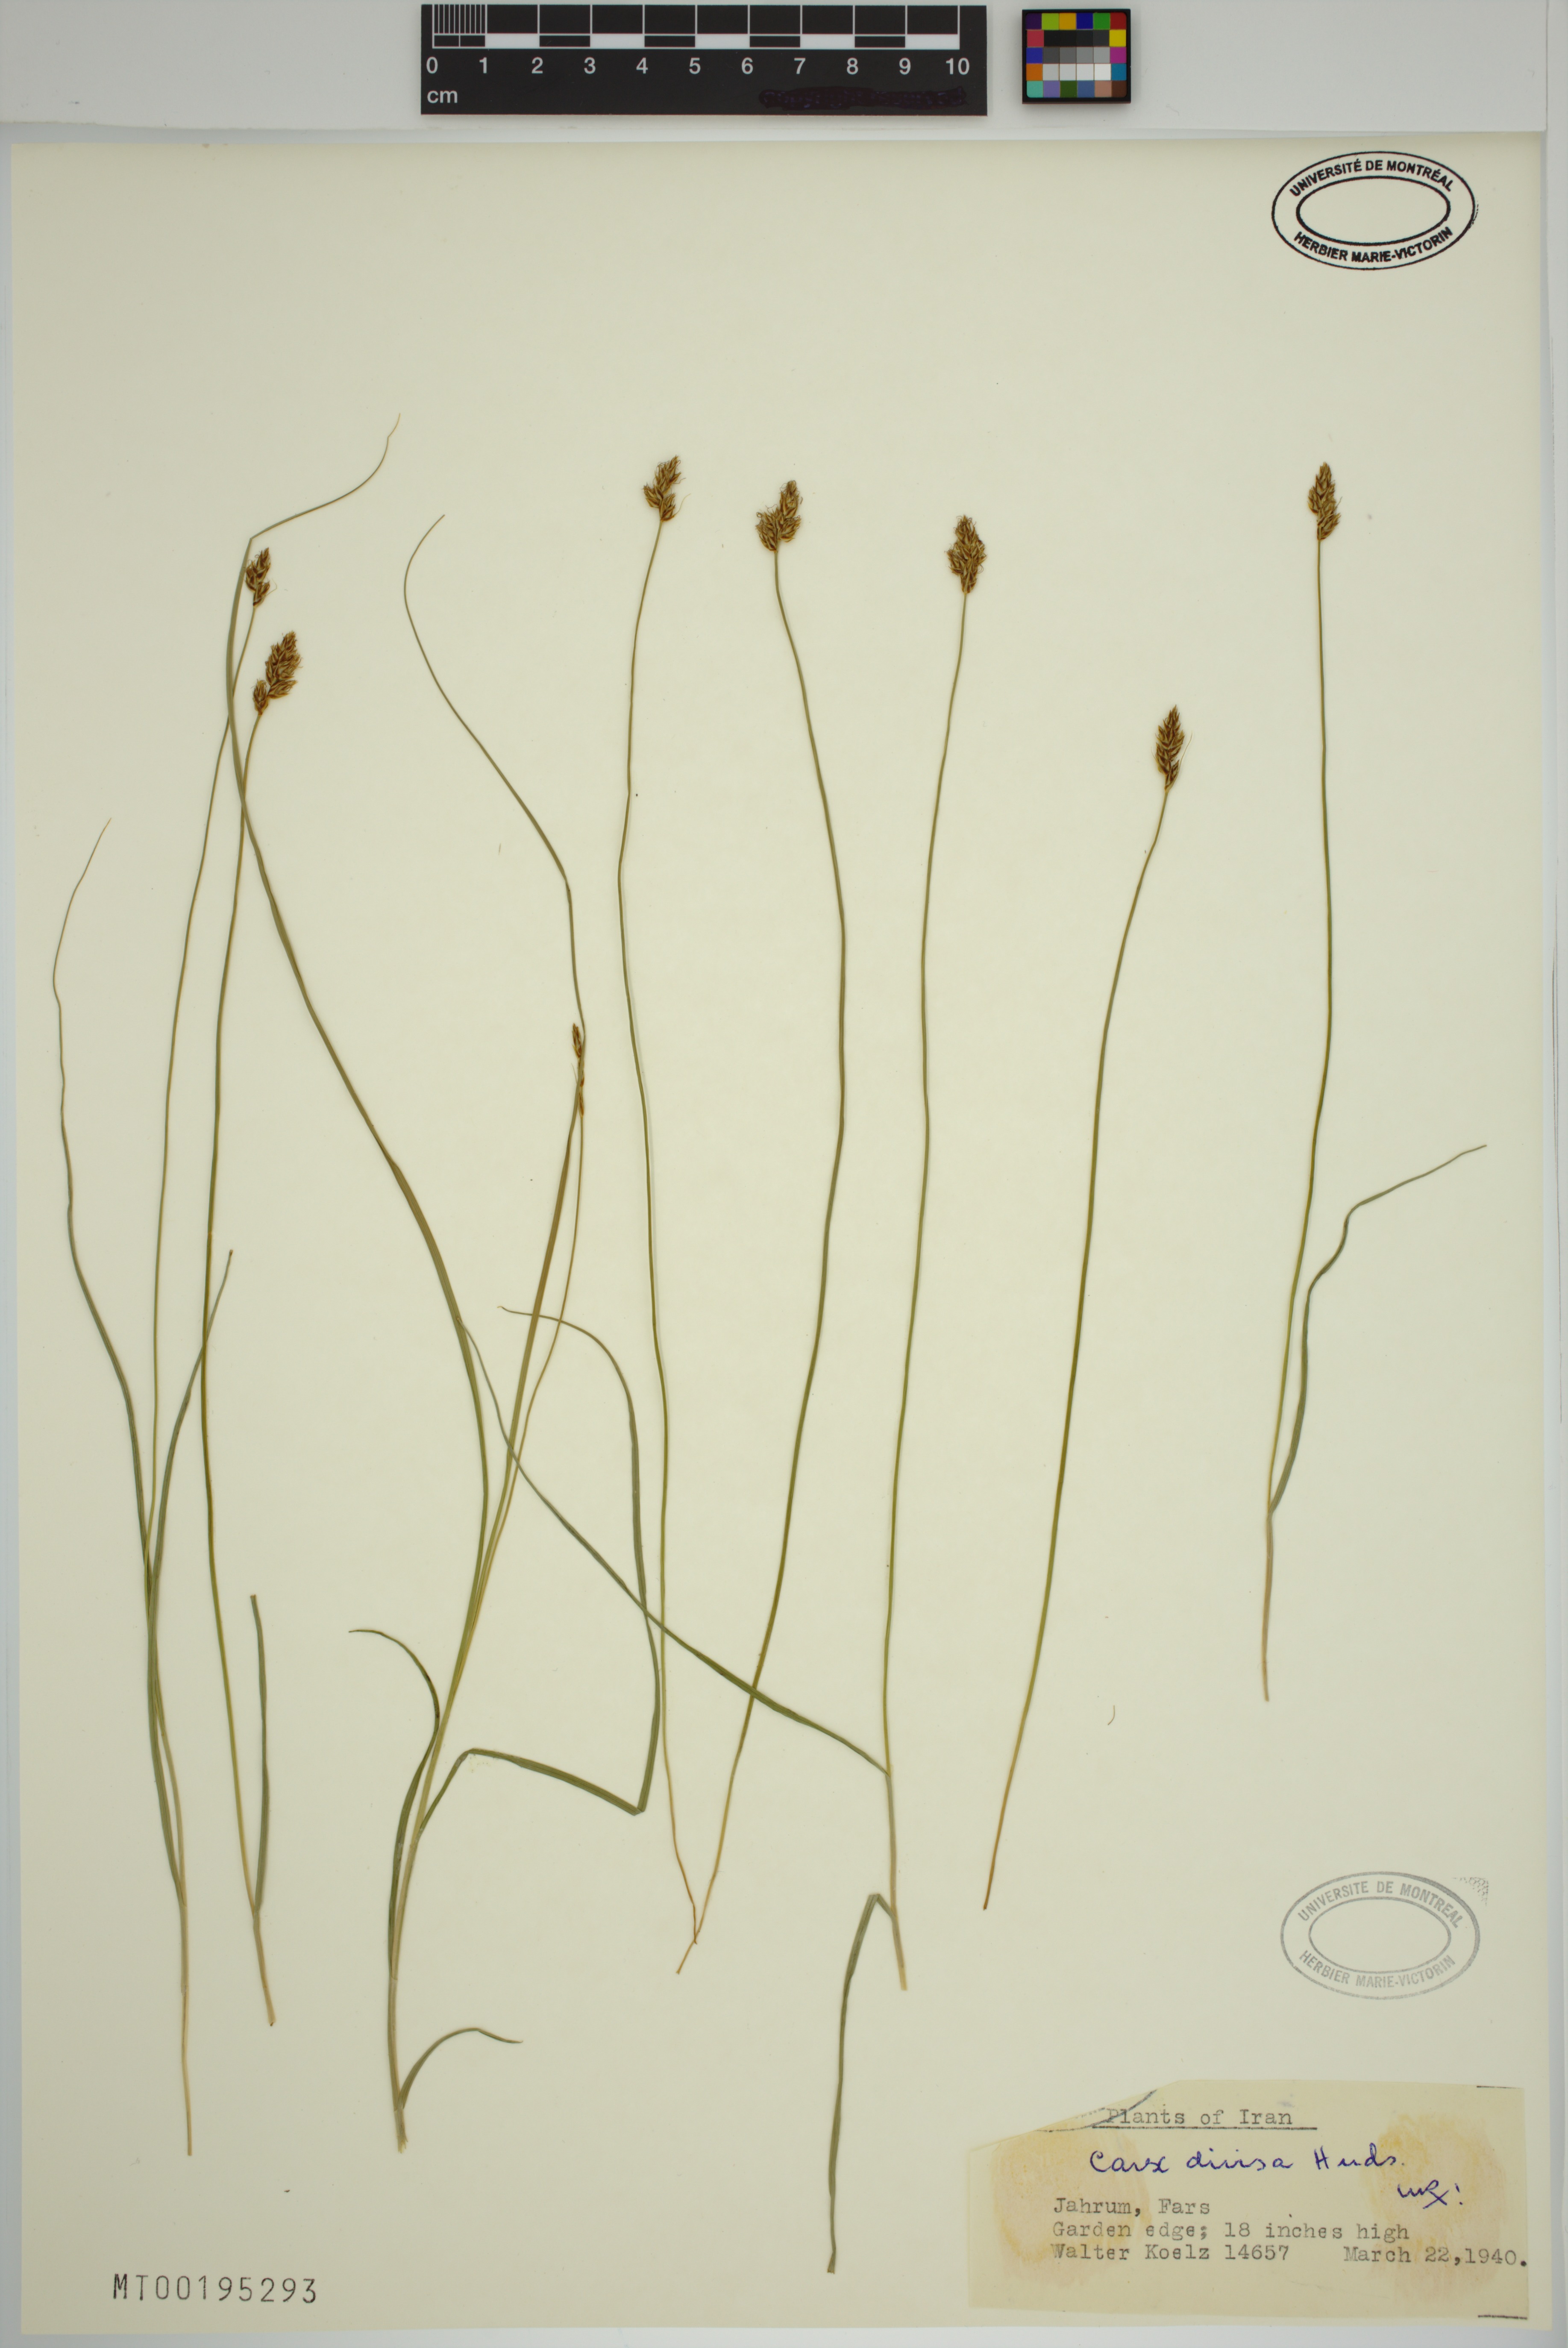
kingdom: Plantae
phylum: Tracheophyta
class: Liliopsida
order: Poales
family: Cyperaceae
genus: Carex
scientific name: Carex divisa
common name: Divided sedge
